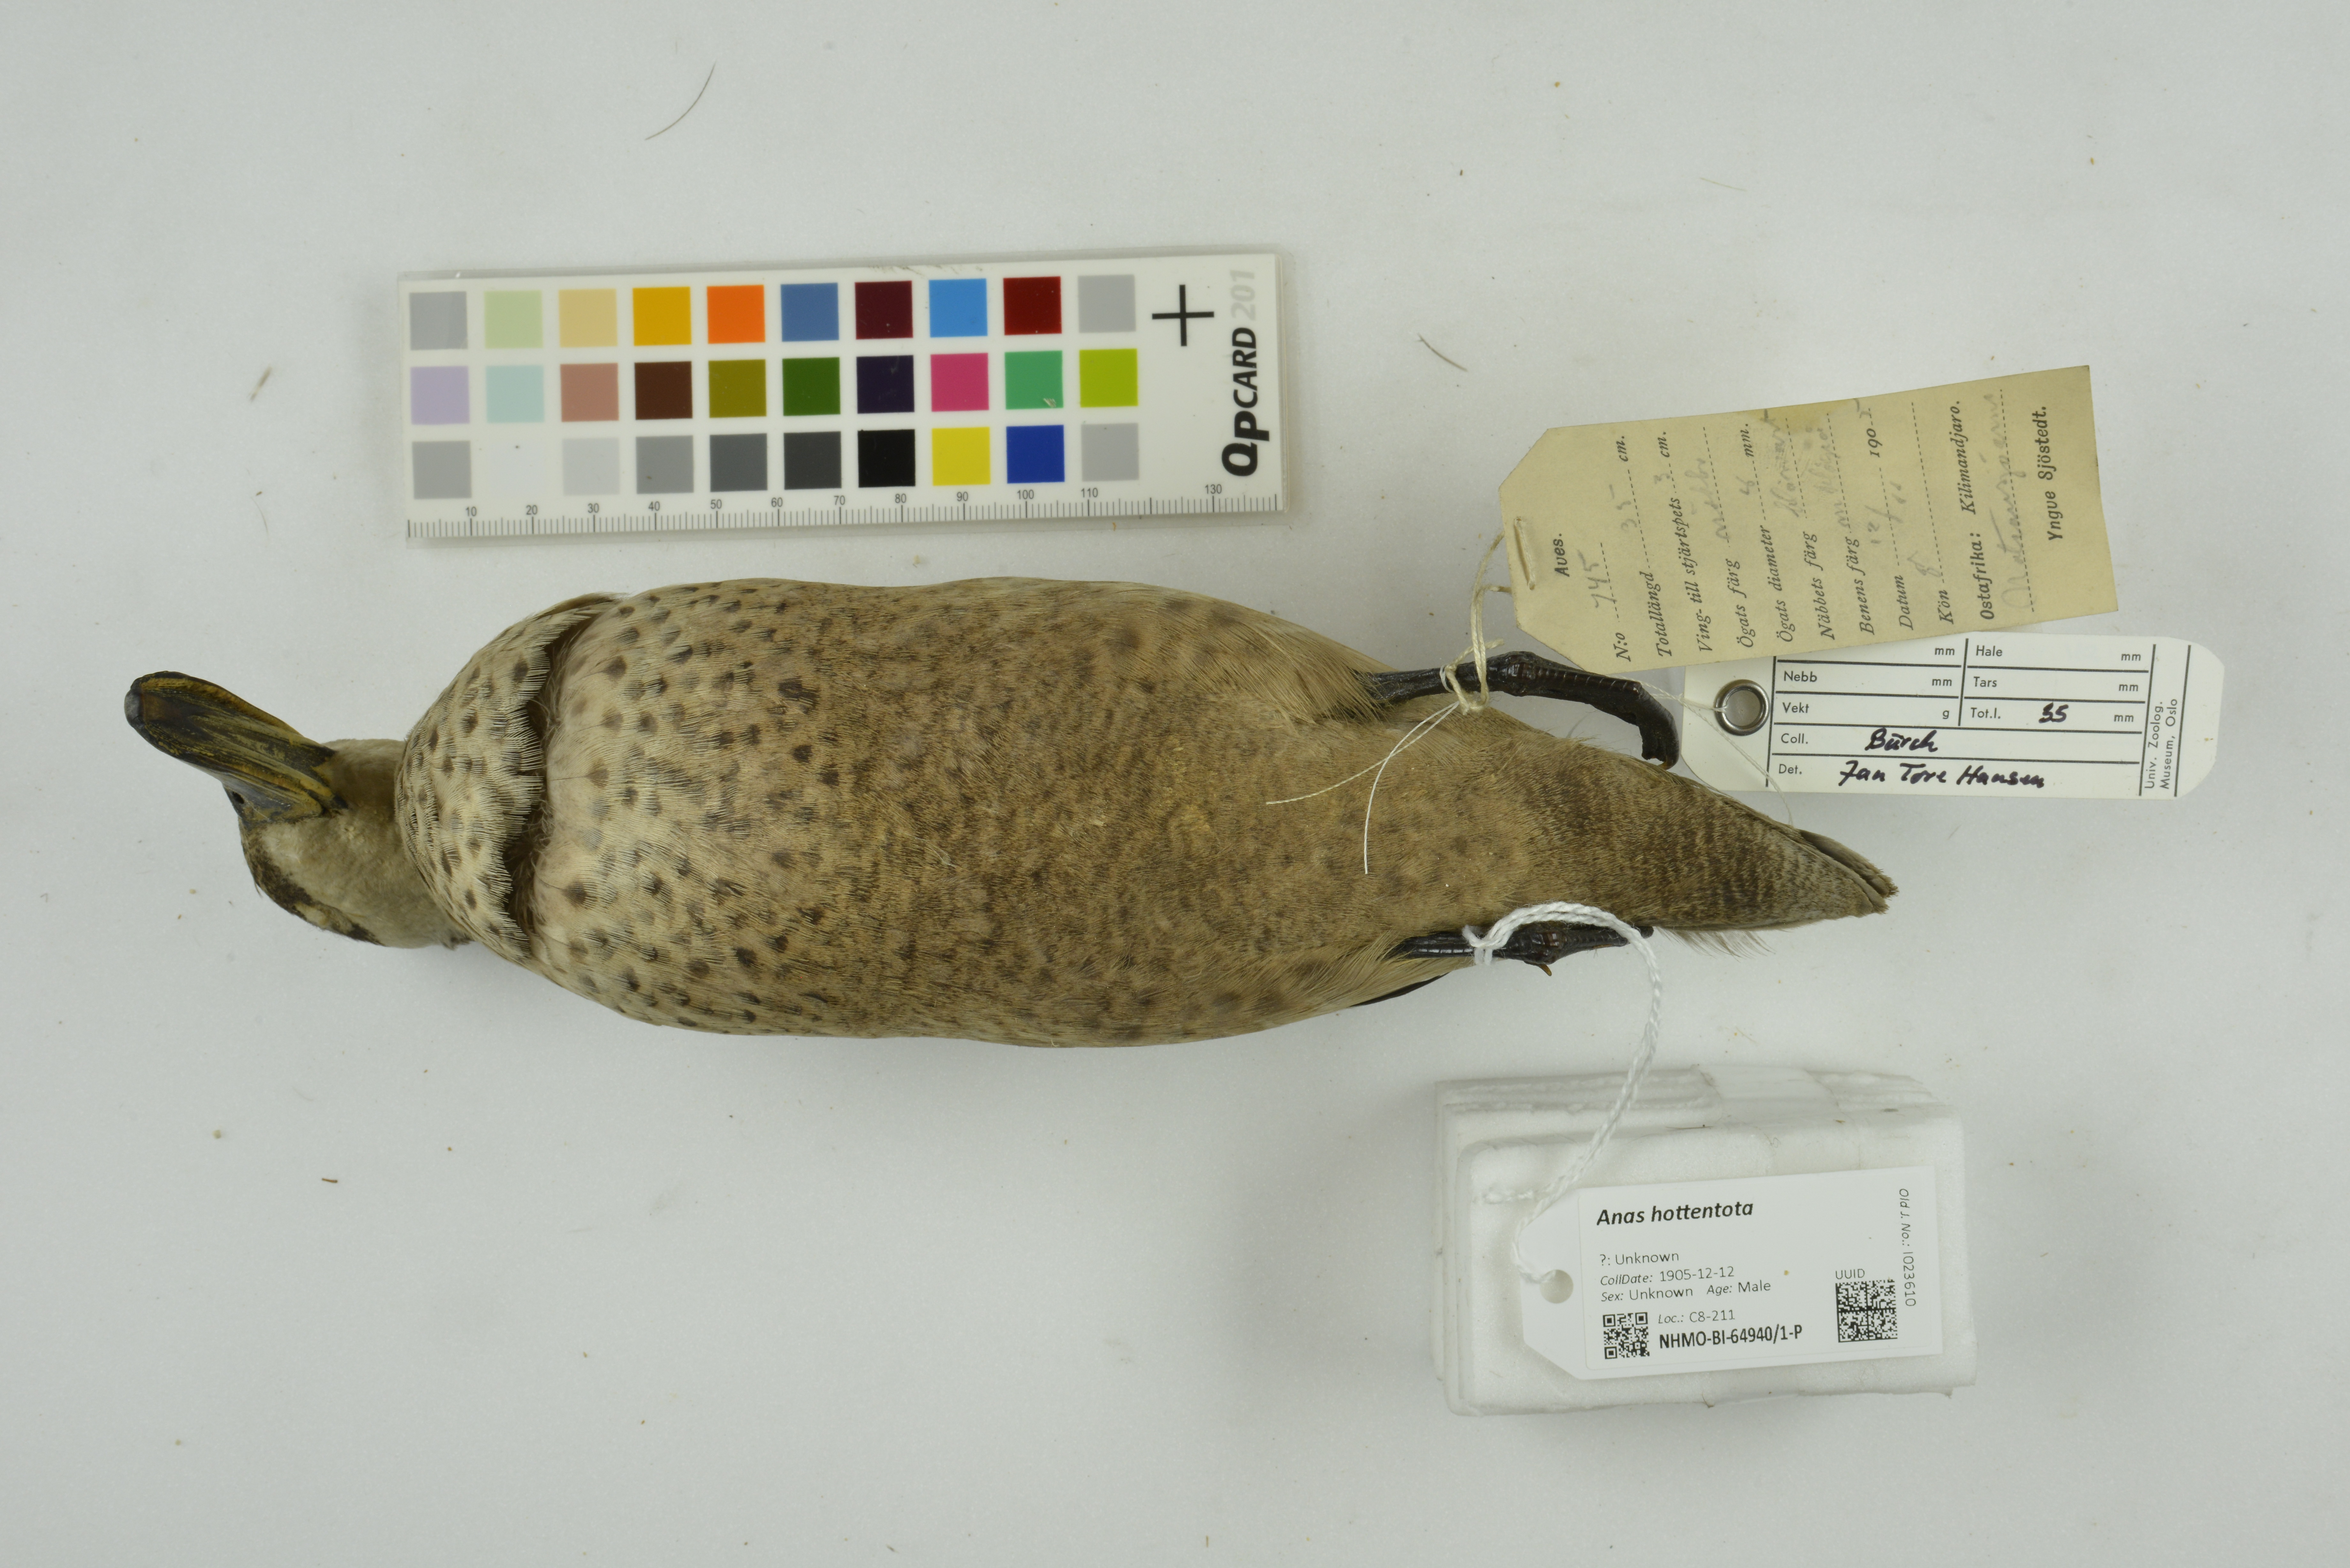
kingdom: Animalia
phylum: Chordata
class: Aves
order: Anseriformes
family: Anatidae
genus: Spatula
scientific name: Spatula hottentota
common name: Blue-billed teal
